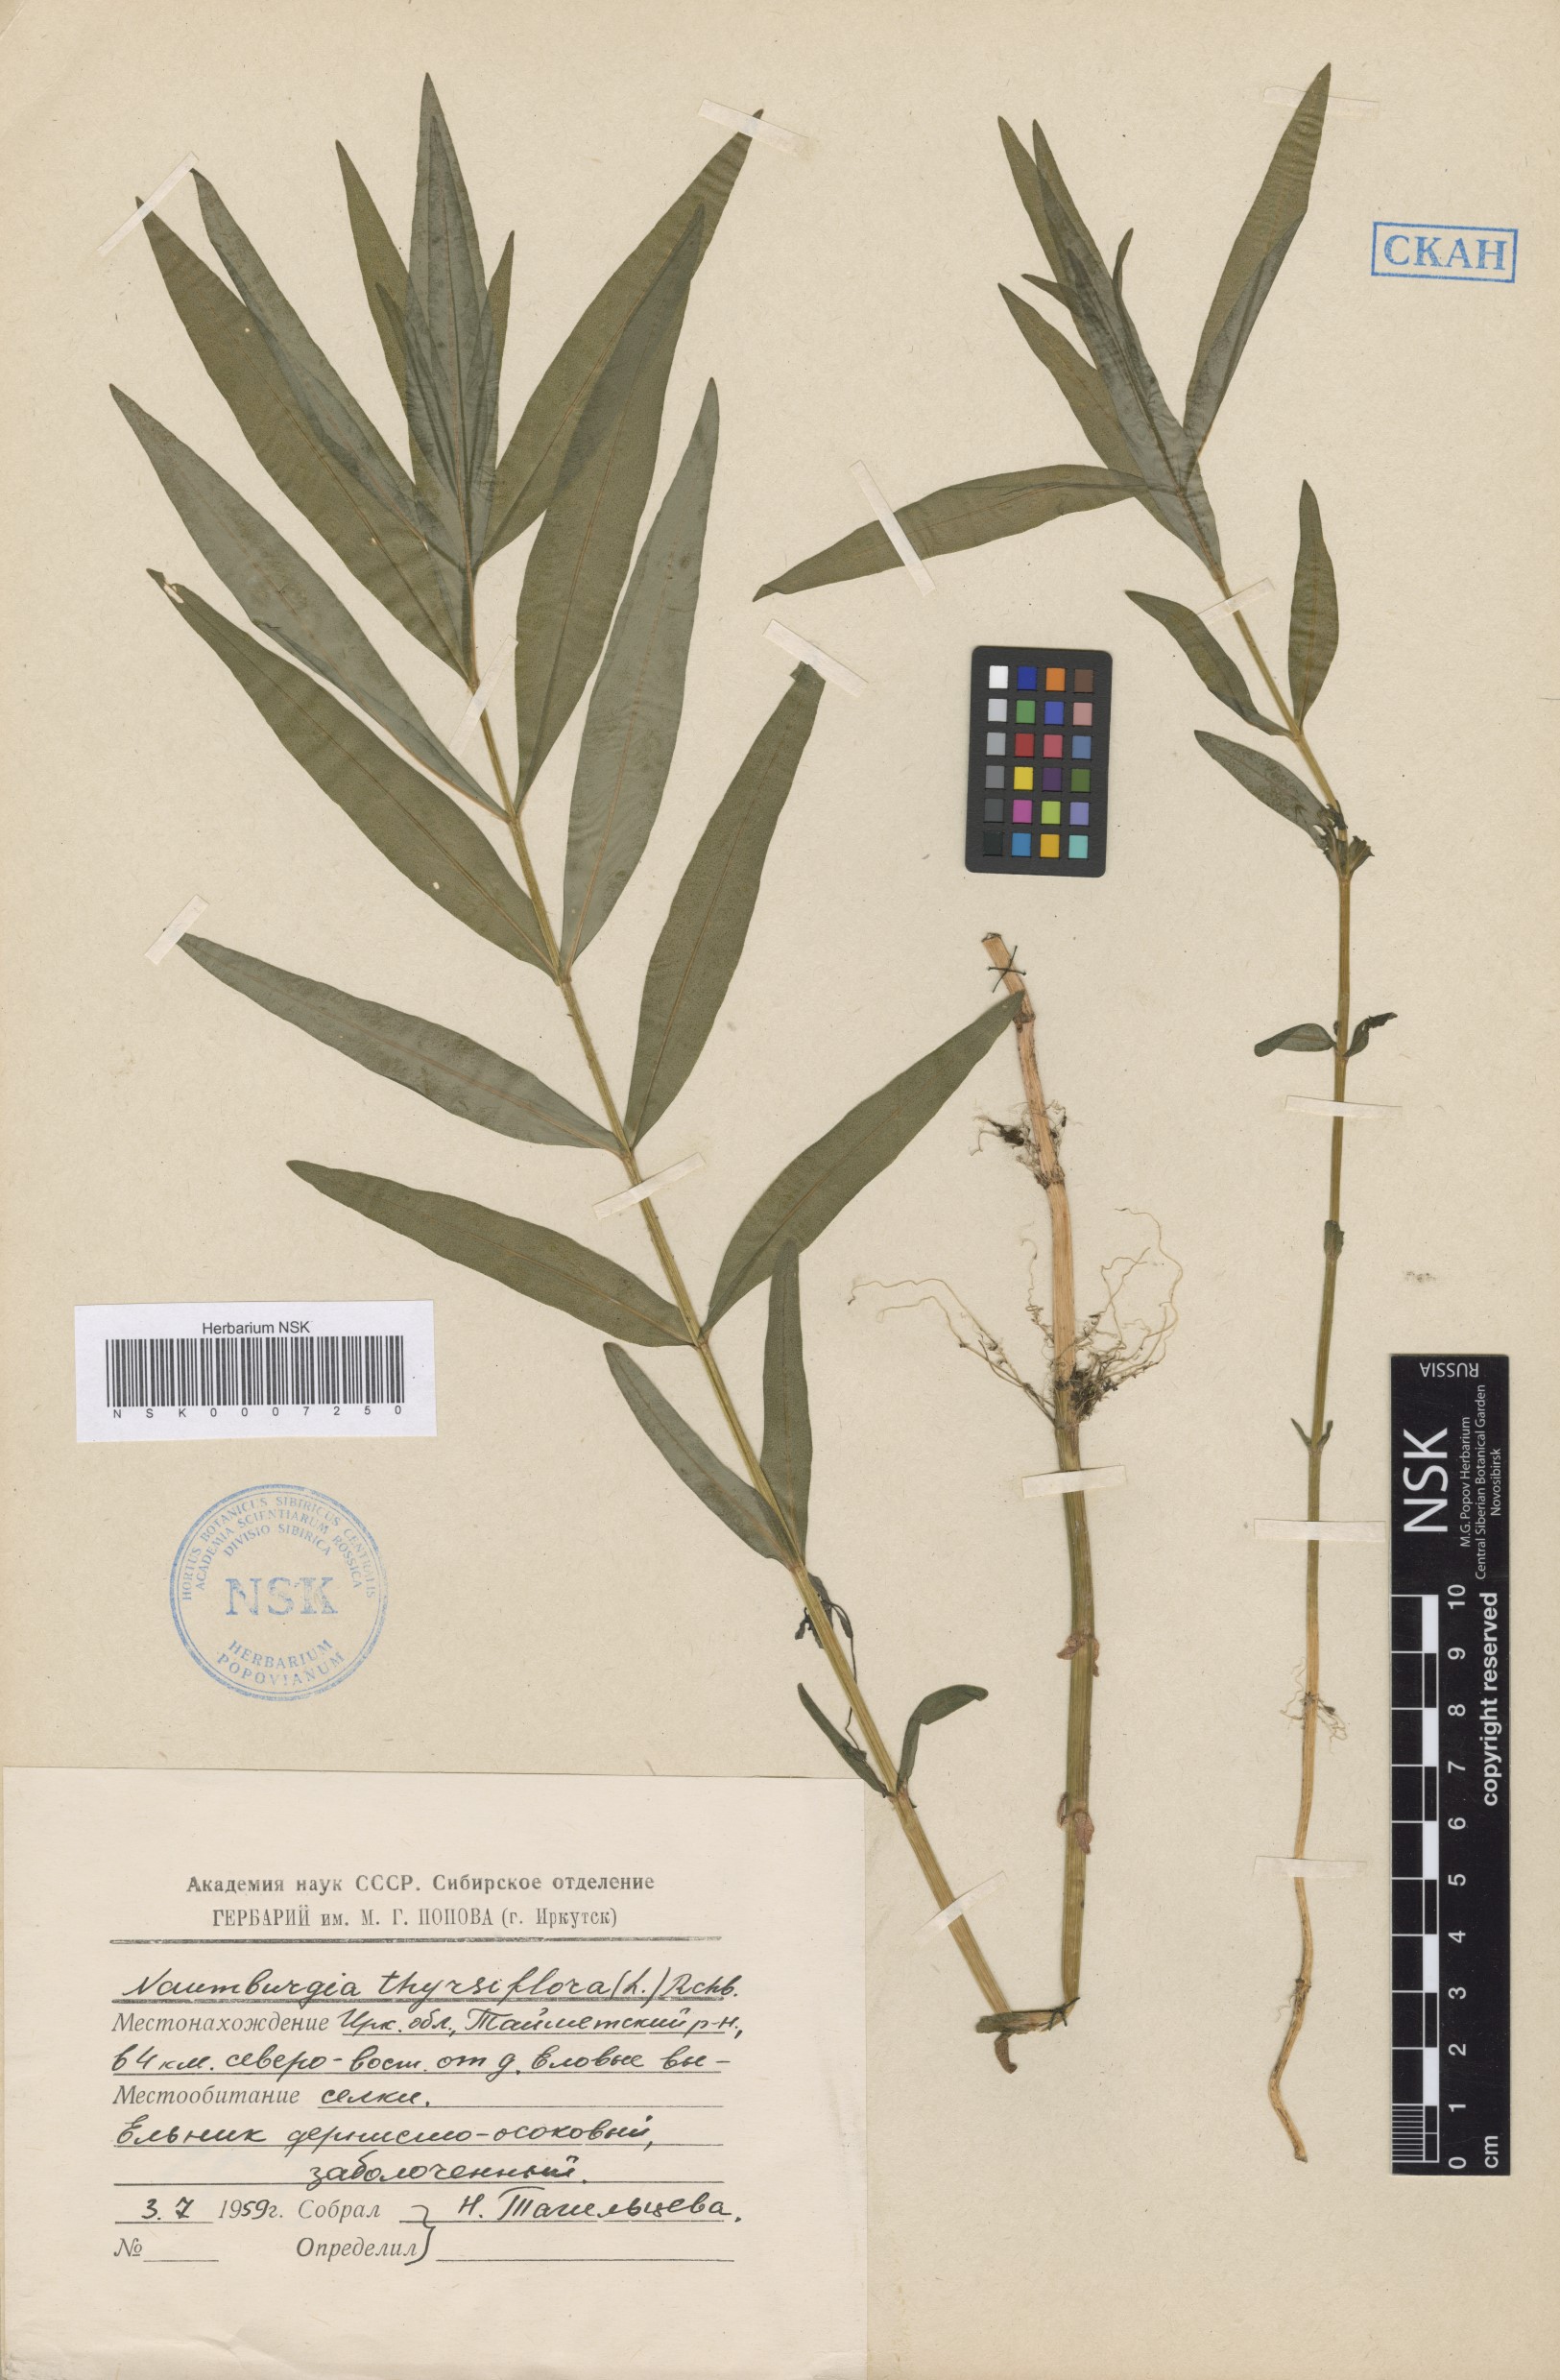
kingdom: Plantae
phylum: Tracheophyta
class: Magnoliopsida
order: Ericales
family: Primulaceae
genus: Lysimachia
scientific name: Lysimachia thyrsiflora
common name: Tufted loosestrife
